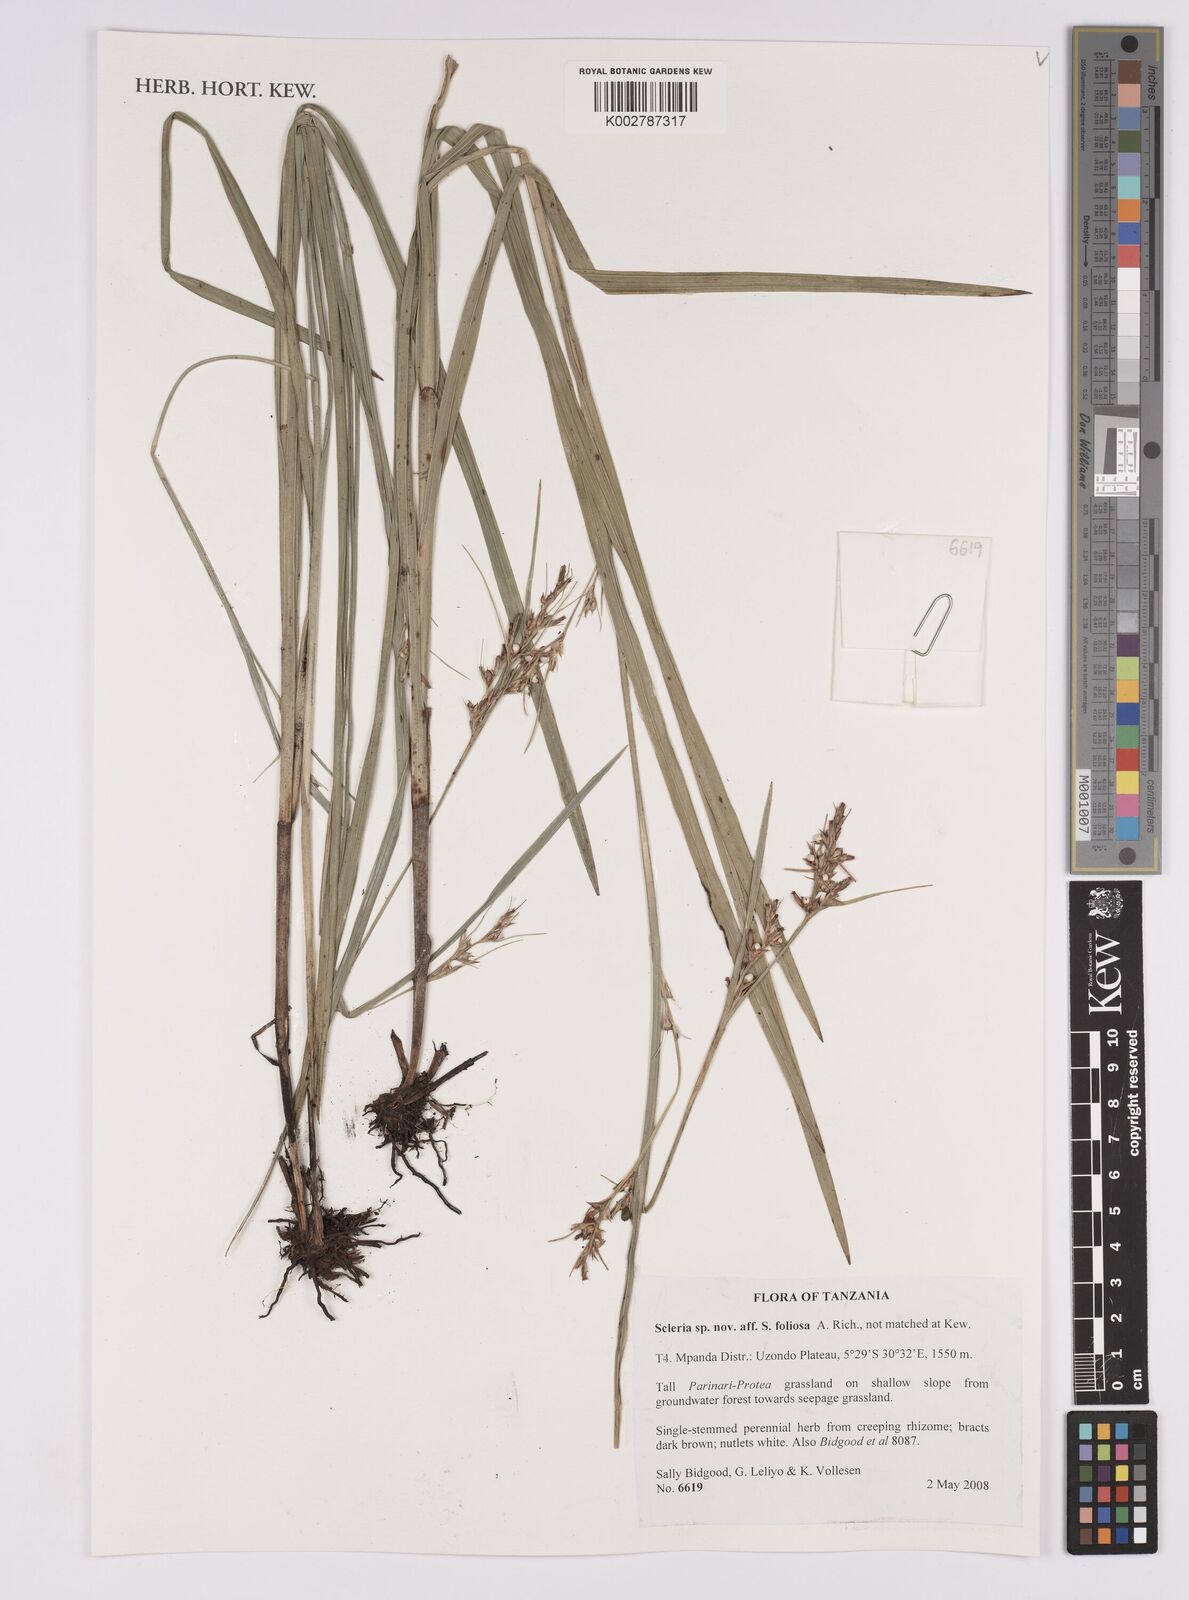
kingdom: Plantae
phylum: Tracheophyta
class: Liliopsida
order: Poales
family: Cyperaceae
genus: Scleria
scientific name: Scleria foliosa
